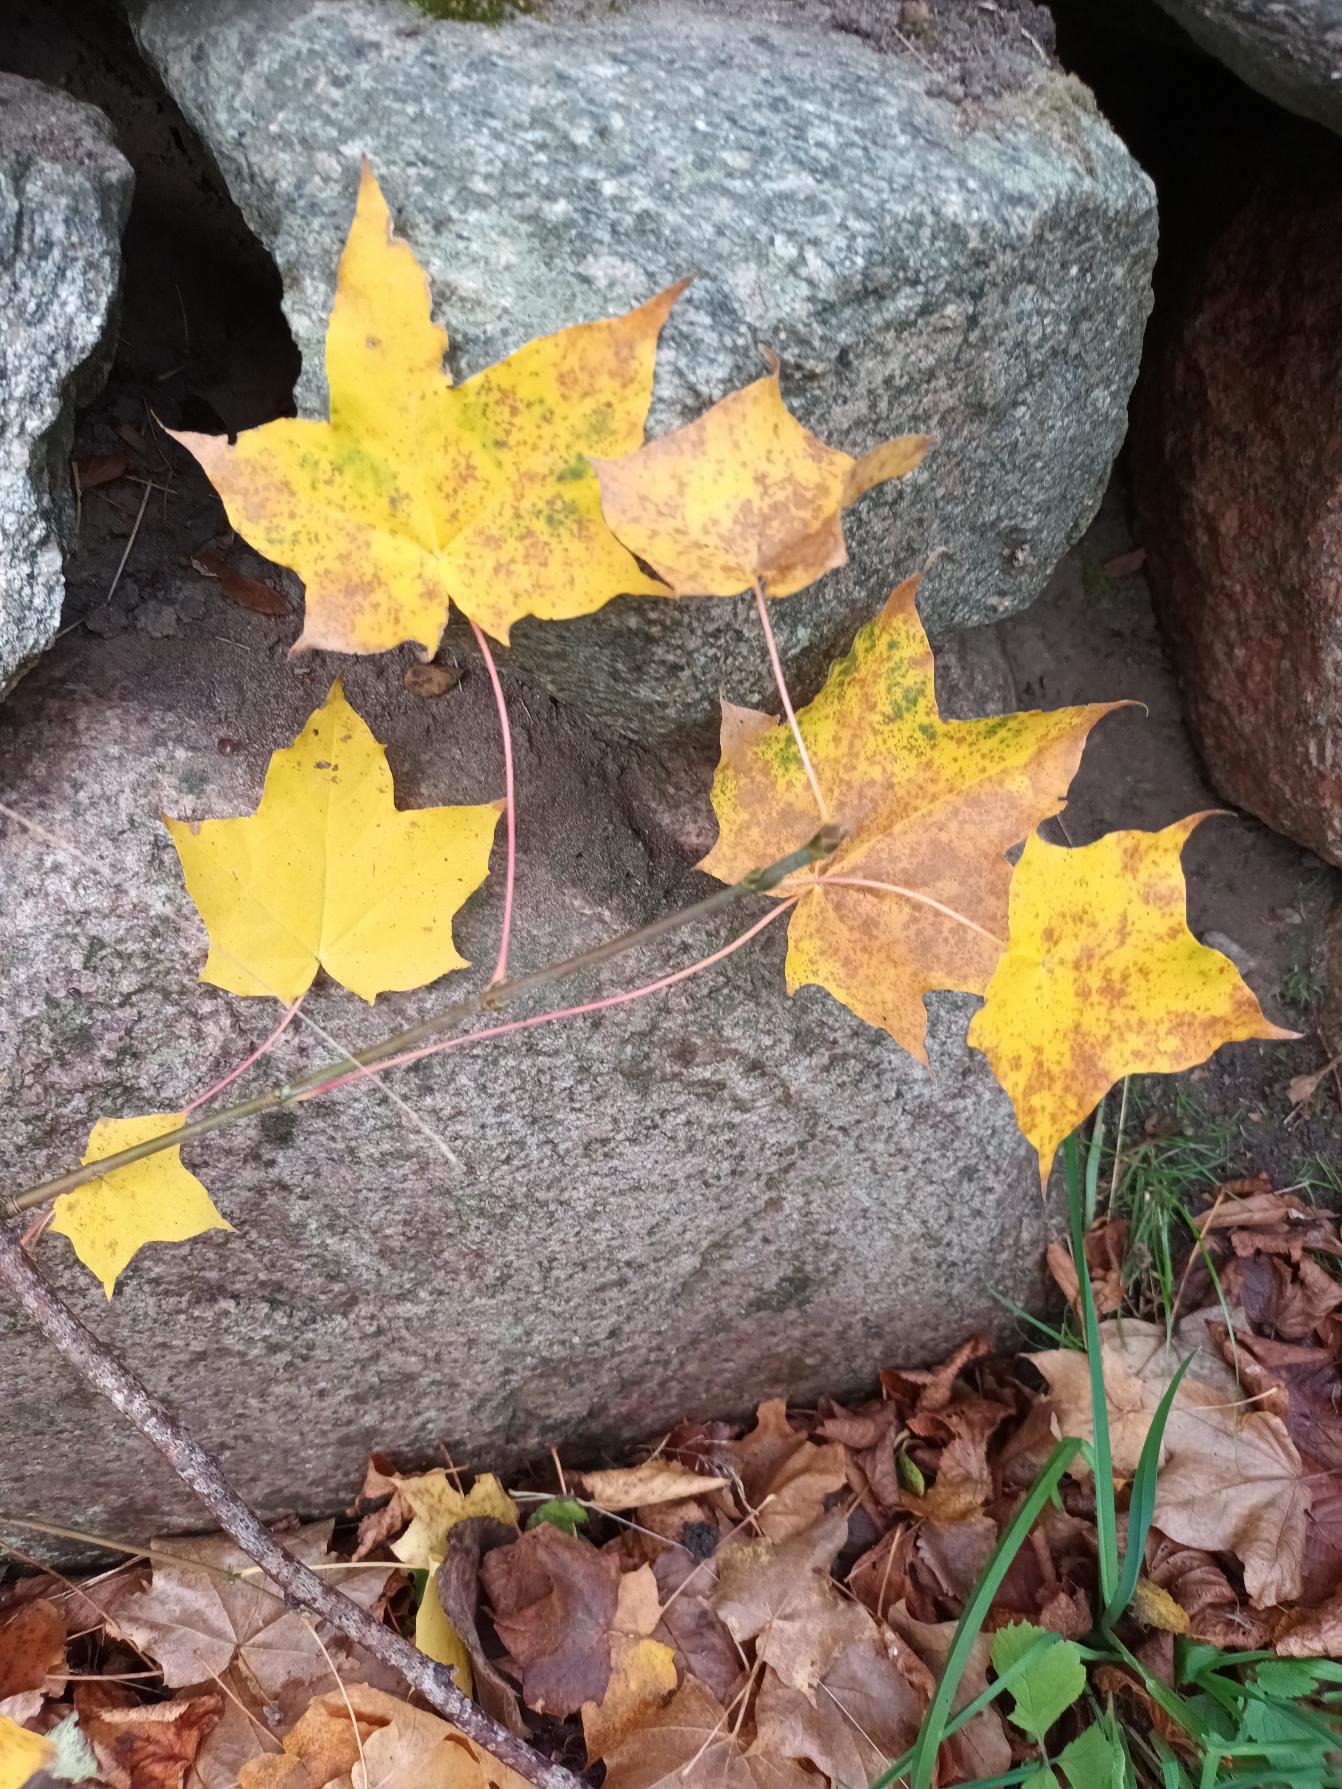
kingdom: Plantae
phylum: Tracheophyta
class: Magnoliopsida
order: Sapindales
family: Sapindaceae
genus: Acer
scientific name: Acer cappadocicum
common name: Tyrkisk løn
